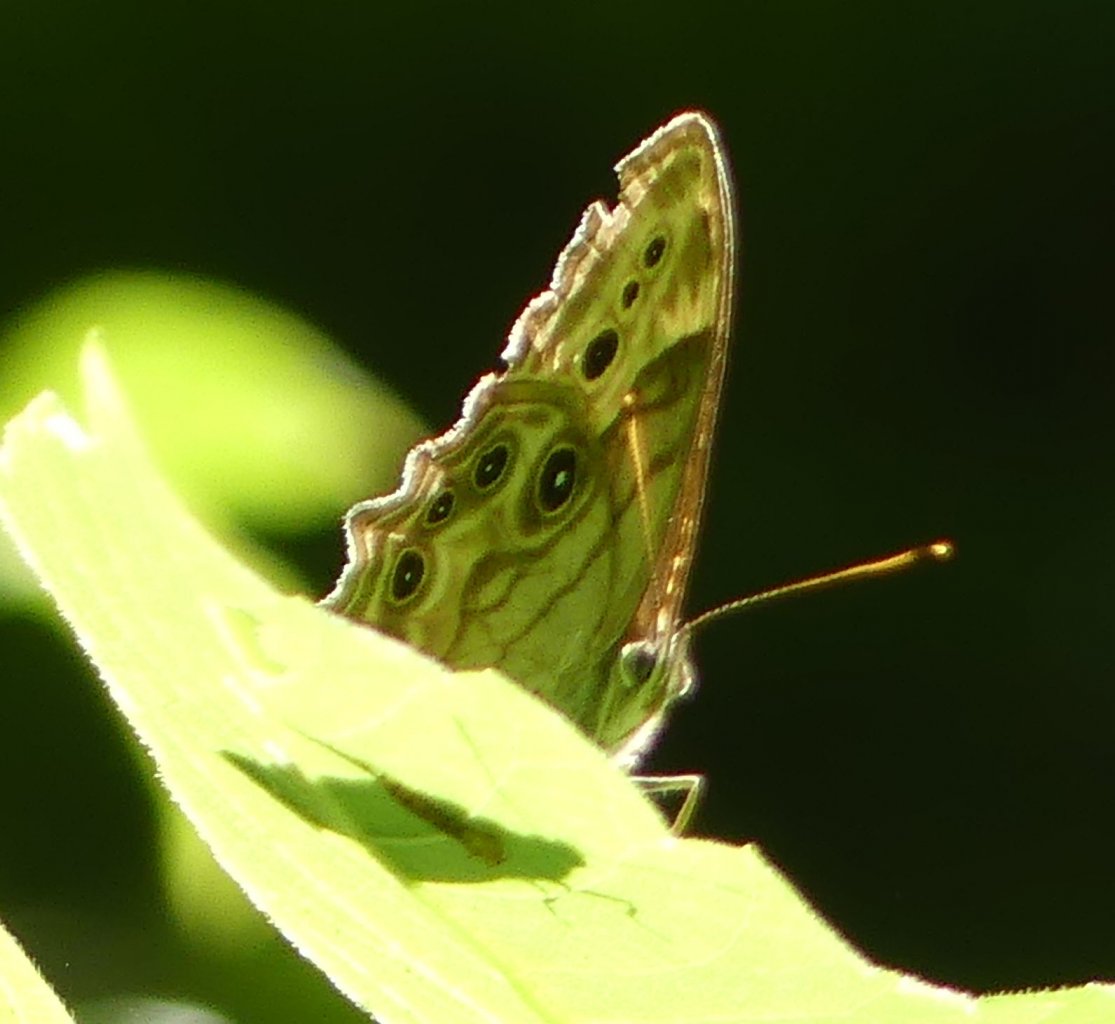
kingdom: Animalia
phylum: Arthropoda
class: Insecta
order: Lepidoptera
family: Nymphalidae
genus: Lethe
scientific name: Lethe anthedon
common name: Northern Pearly-Eye
